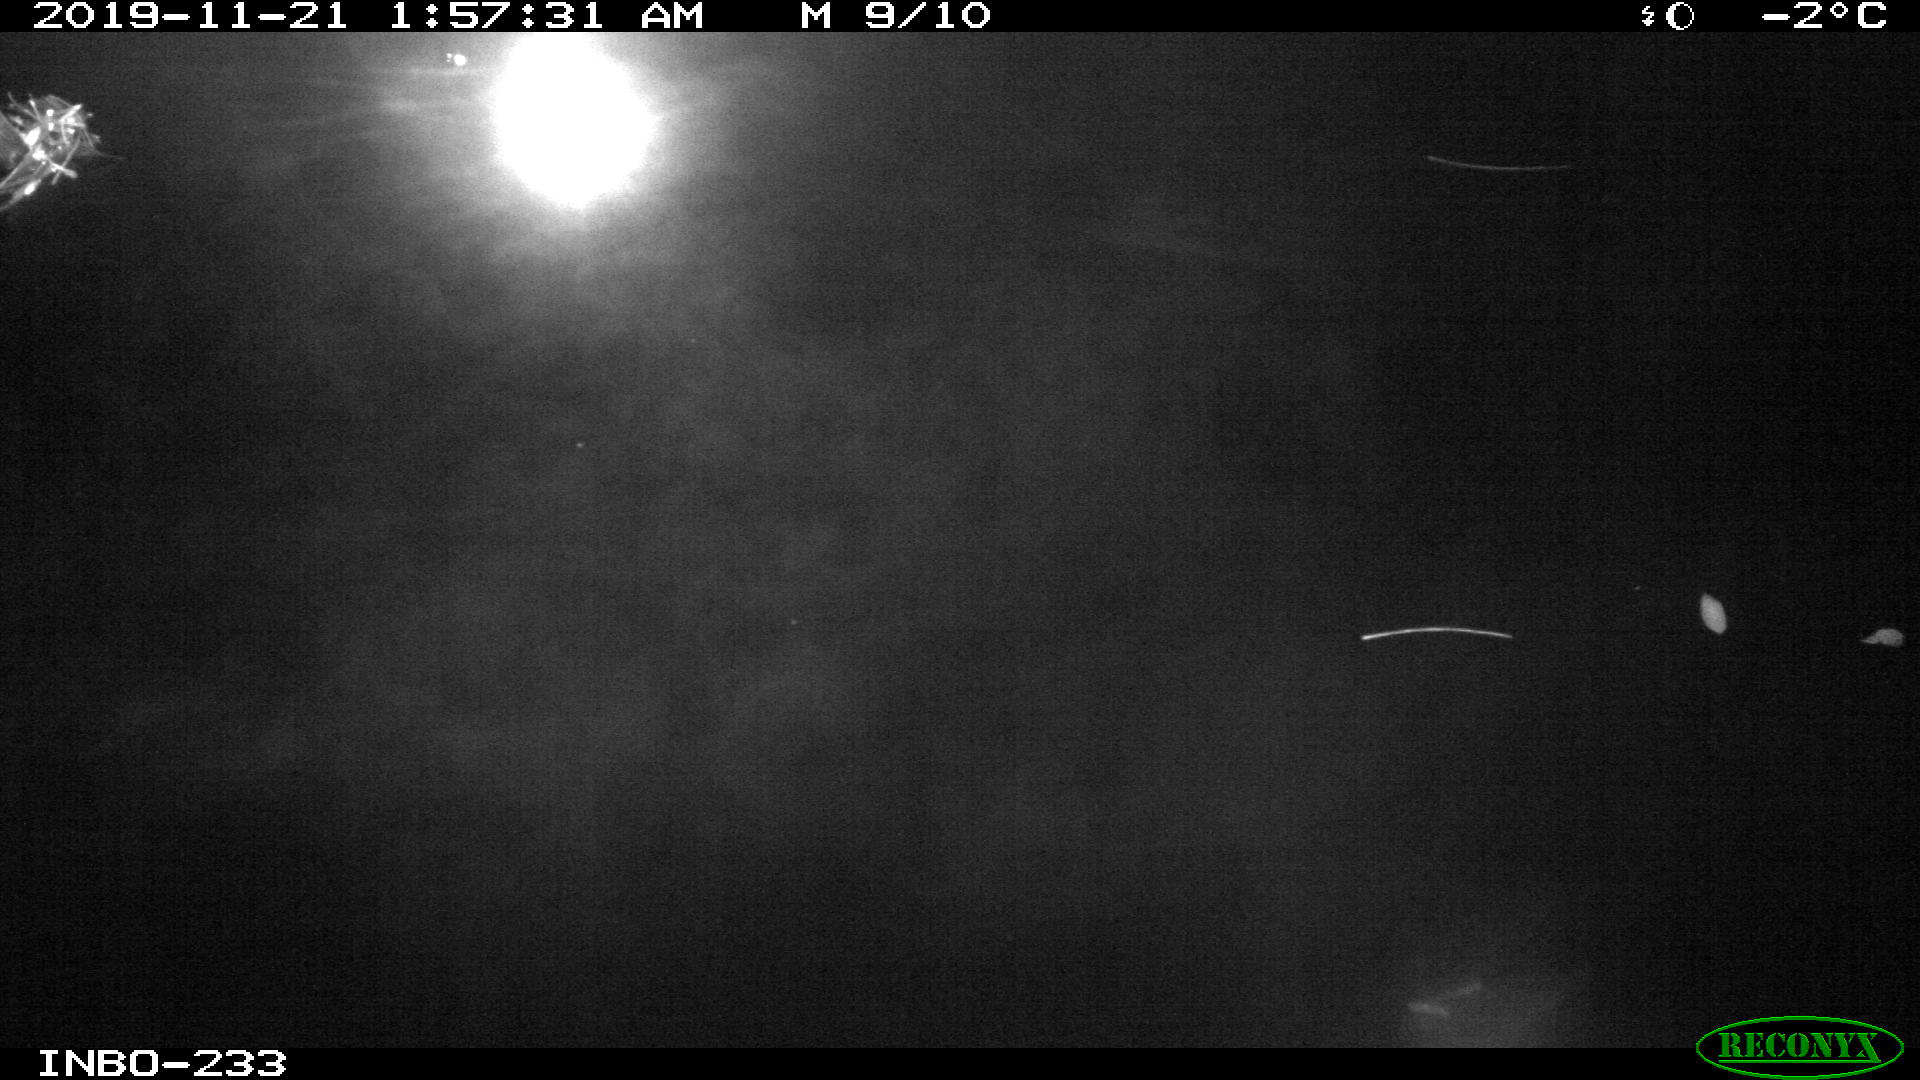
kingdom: Animalia
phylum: Chordata
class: Aves
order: Anseriformes
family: Anatidae
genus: Anas
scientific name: Anas platyrhynchos
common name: Mallard
